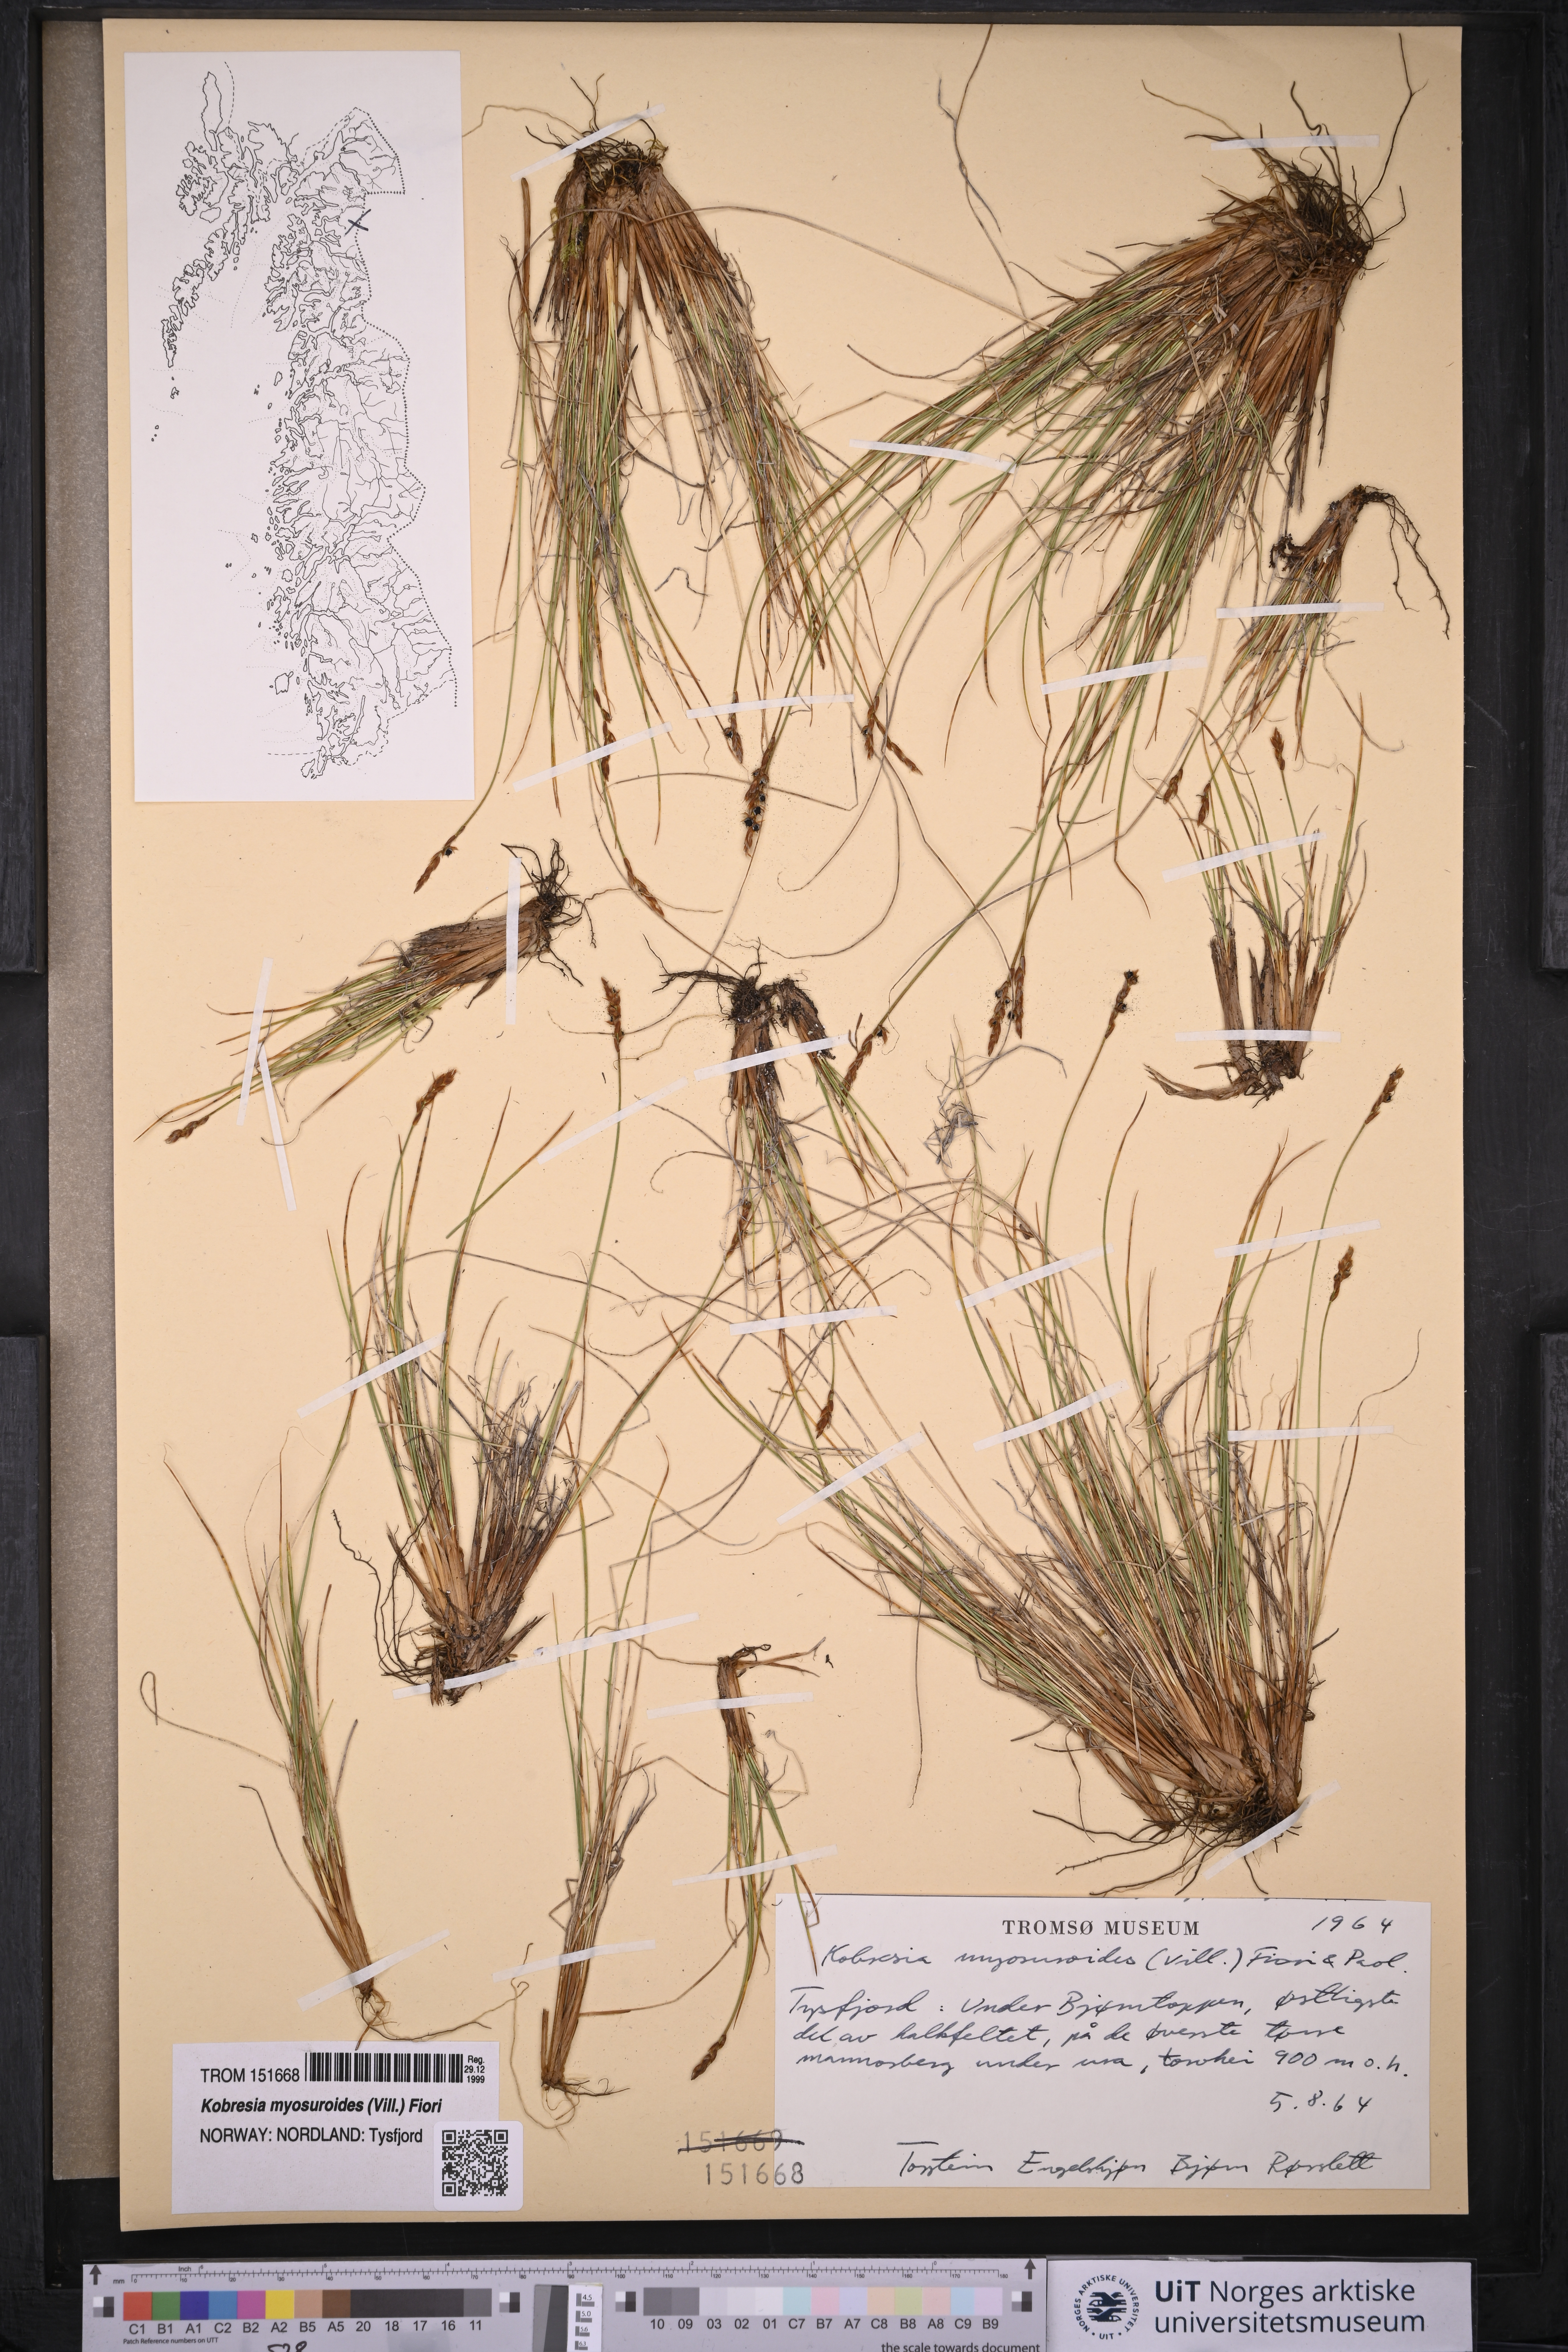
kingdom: Plantae
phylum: Tracheophyta
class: Liliopsida
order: Poales
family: Cyperaceae
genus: Carex
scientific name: Carex myosuroides
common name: Bellard's bog sedge
